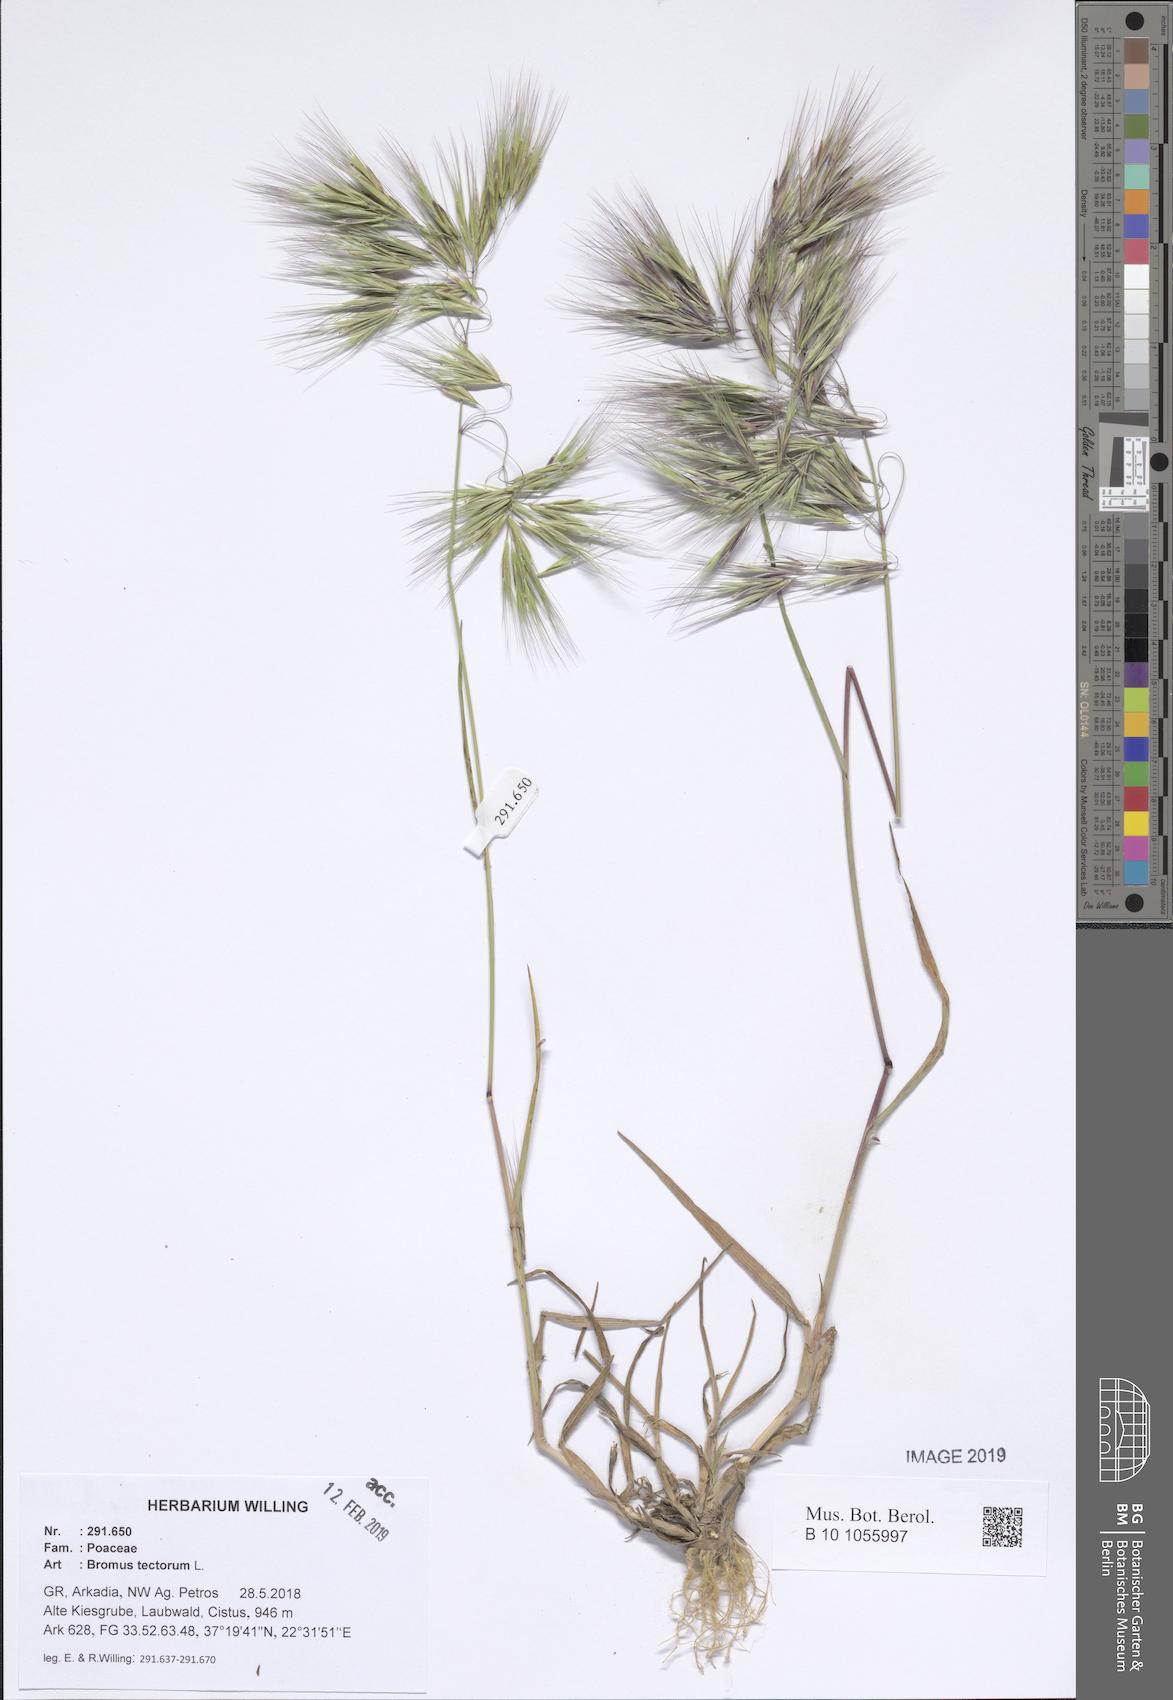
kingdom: Plantae
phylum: Tracheophyta
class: Liliopsida
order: Poales
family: Poaceae
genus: Bromus
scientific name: Bromus tectorum
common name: Cheatgrass
